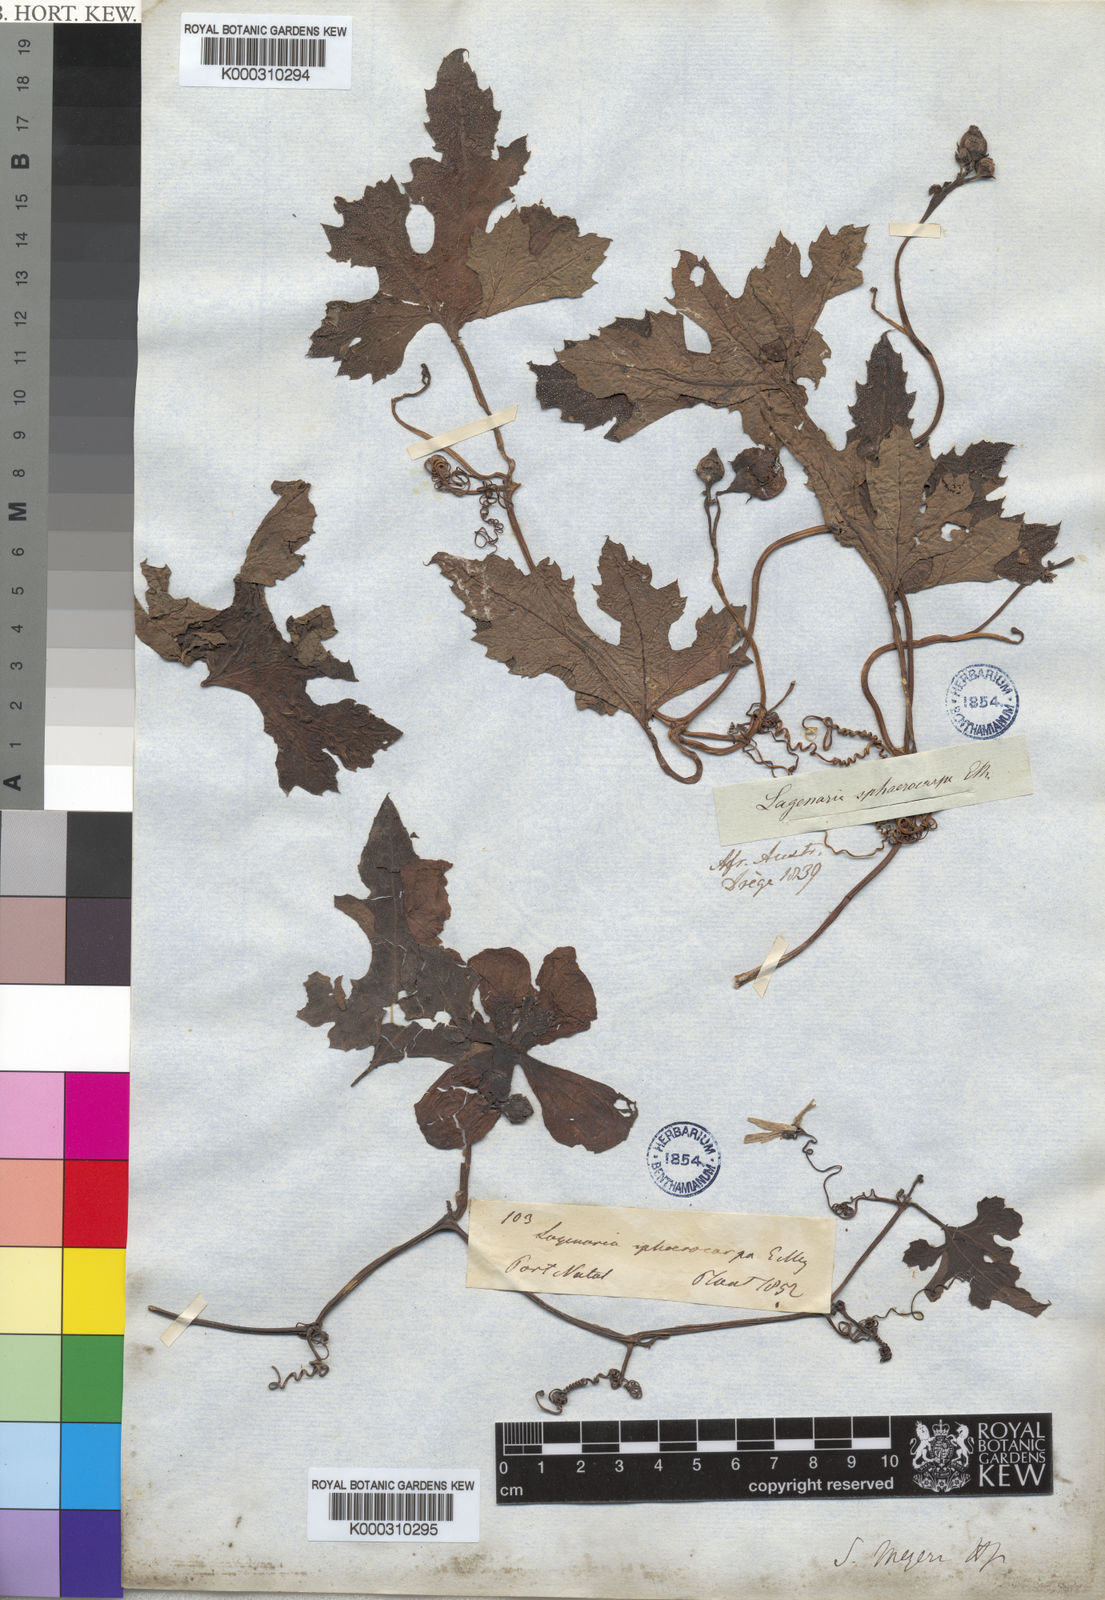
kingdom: Plantae
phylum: Tracheophyta
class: Magnoliopsida
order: Cucurbitales
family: Cucurbitaceae
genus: Lagenaria
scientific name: Lagenaria
